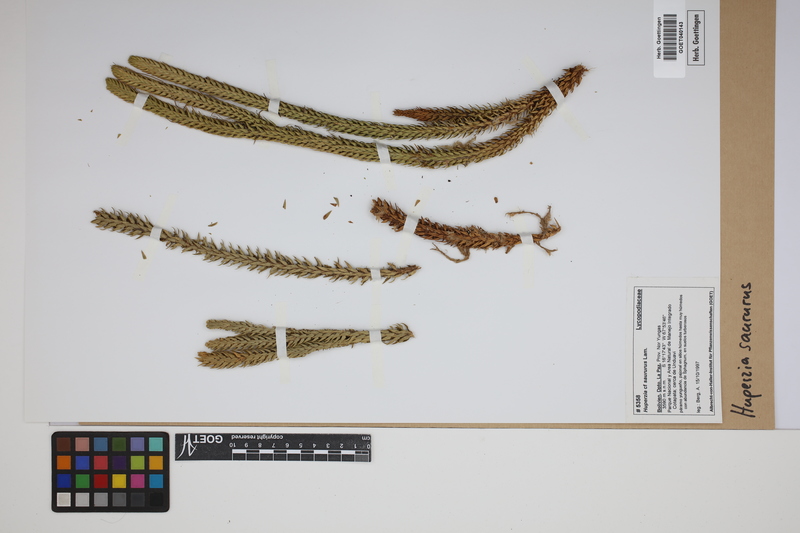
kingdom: Plantae
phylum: Tracheophyta
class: Lycopodiopsida
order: Lycopodiales
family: Lycopodiaceae
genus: Phlegmariurus
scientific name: Phlegmariurus saururus
